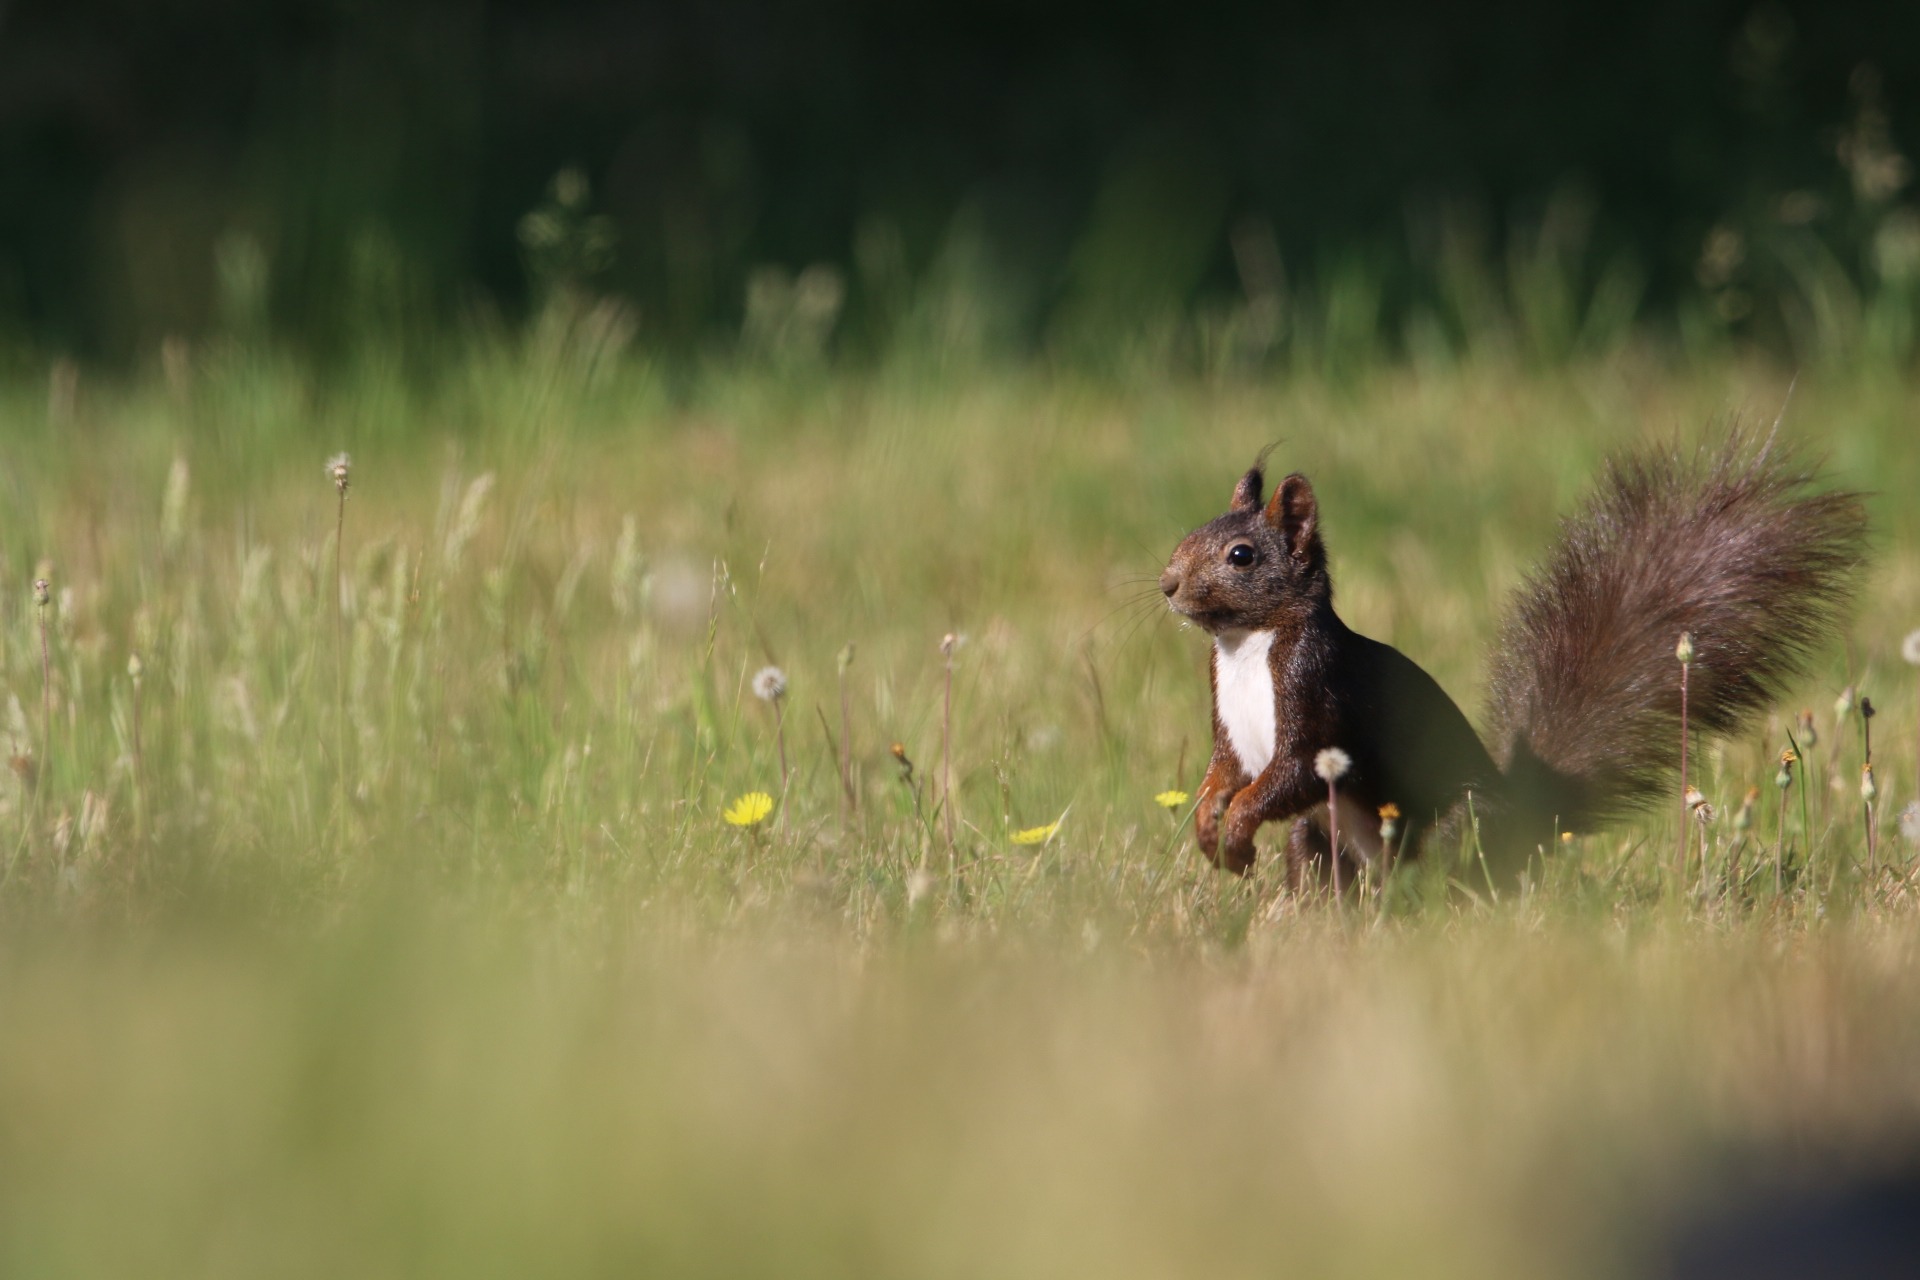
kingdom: Animalia
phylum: Chordata
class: Mammalia
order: Rodentia
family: Sciuridae
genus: Sciurus
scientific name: Sciurus vulgaris
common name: Egern
